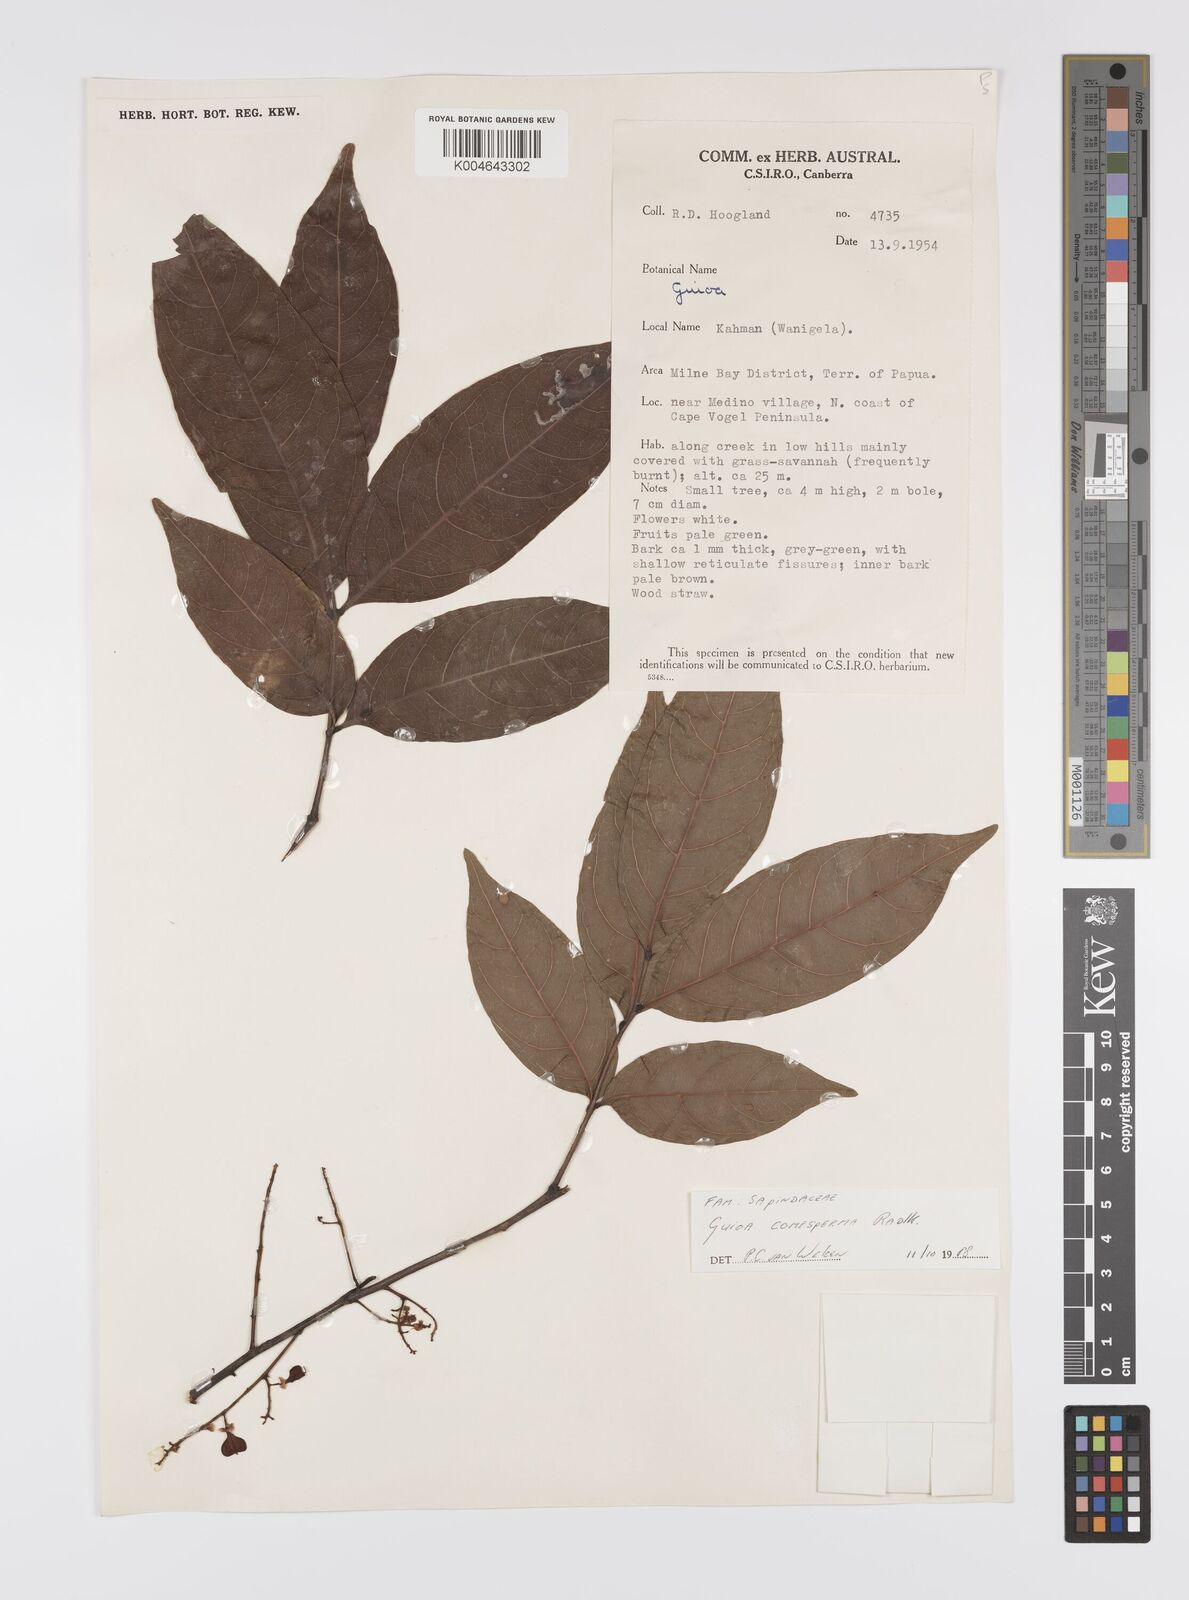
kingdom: Plantae
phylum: Tracheophyta
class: Magnoliopsida
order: Sapindales
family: Sapindaceae
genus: Guioa
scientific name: Guioa comesperma
